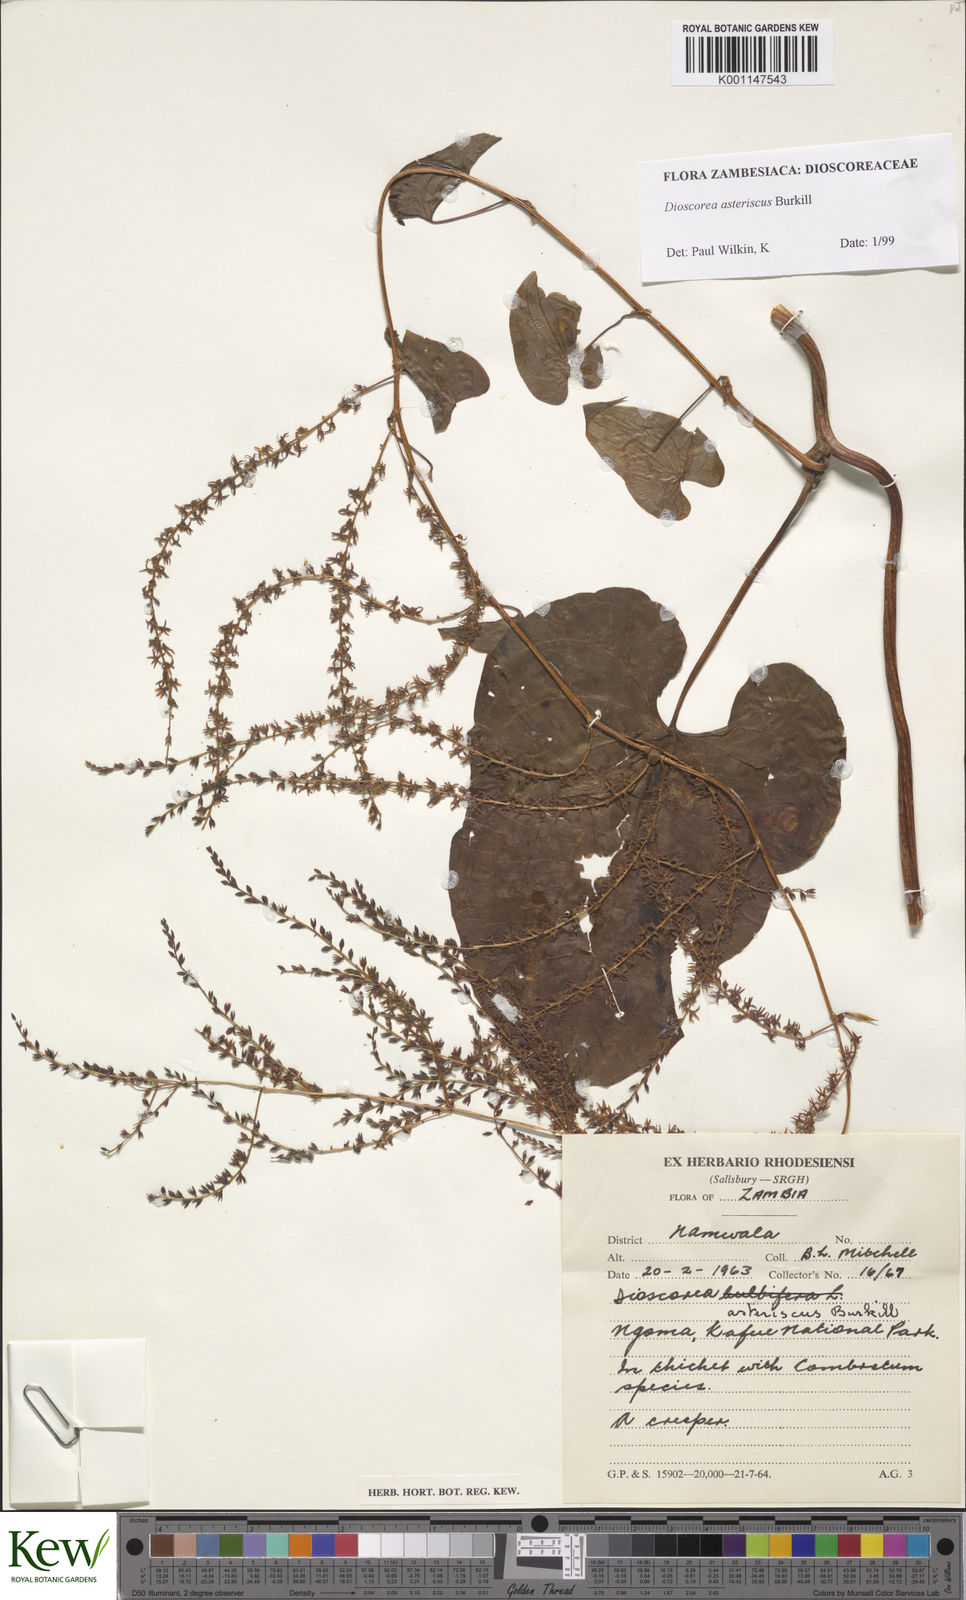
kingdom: Plantae
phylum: Tracheophyta
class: Liliopsida
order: Dioscoreales
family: Dioscoreaceae
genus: Dioscorea
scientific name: Dioscorea asteriscus
